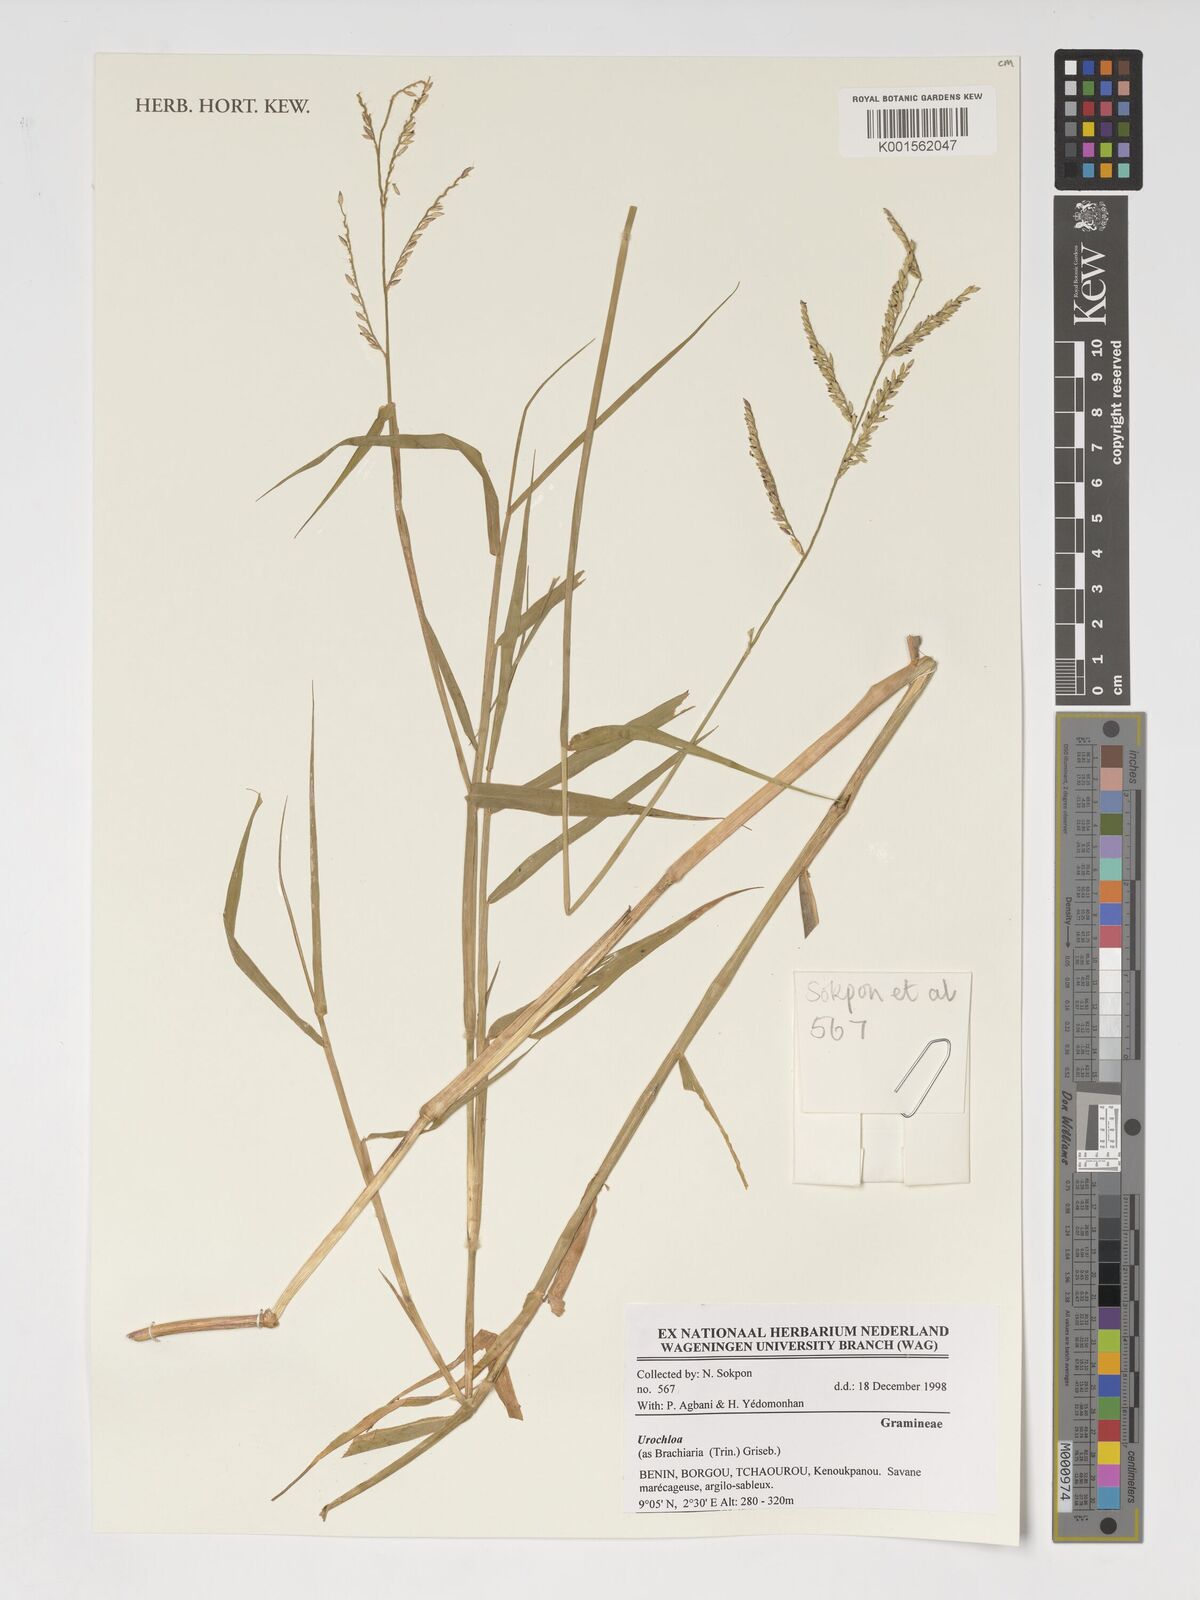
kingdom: Plantae
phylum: Tracheophyta
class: Liliopsida
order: Poales
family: Poaceae
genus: Urochloa
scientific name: Urochloa
